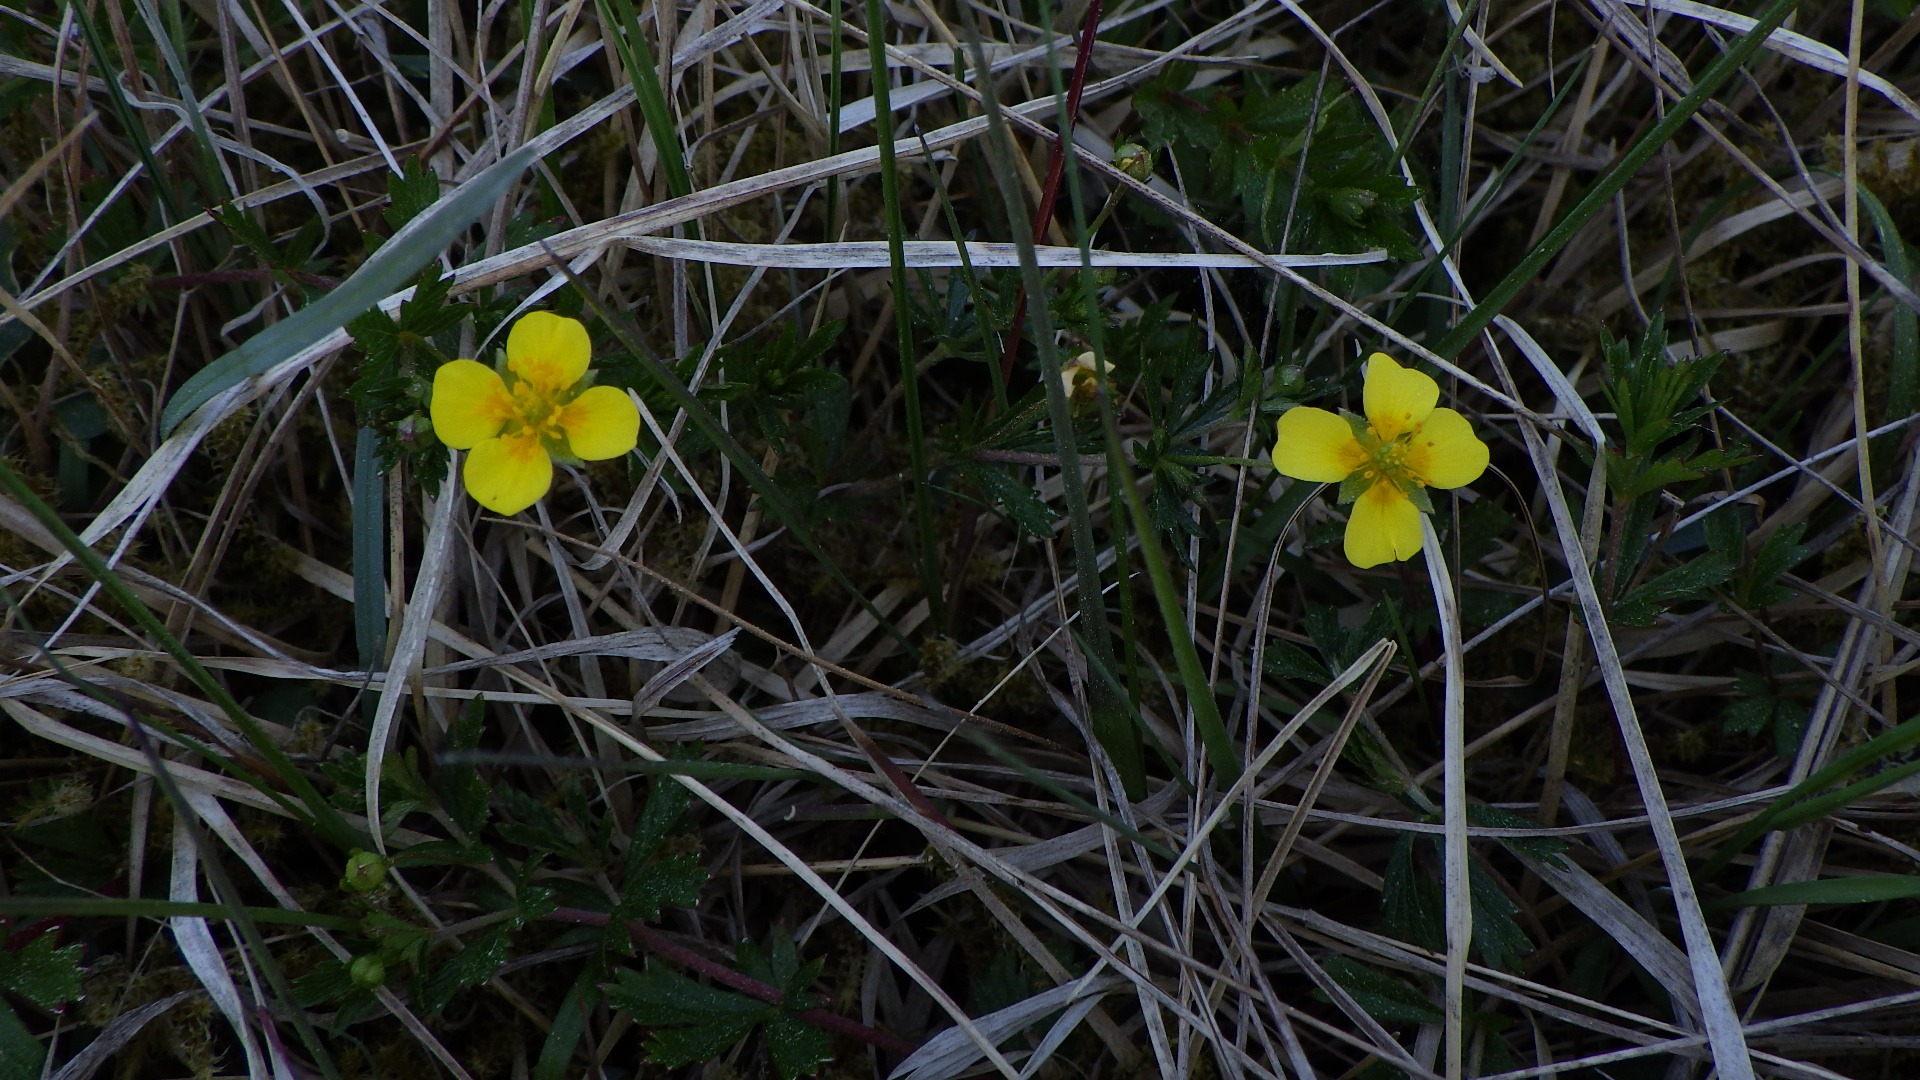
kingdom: Plantae
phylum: Tracheophyta
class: Magnoliopsida
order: Rosales
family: Rosaceae
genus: Potentilla
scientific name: Potentilla erecta
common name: Tormentil
